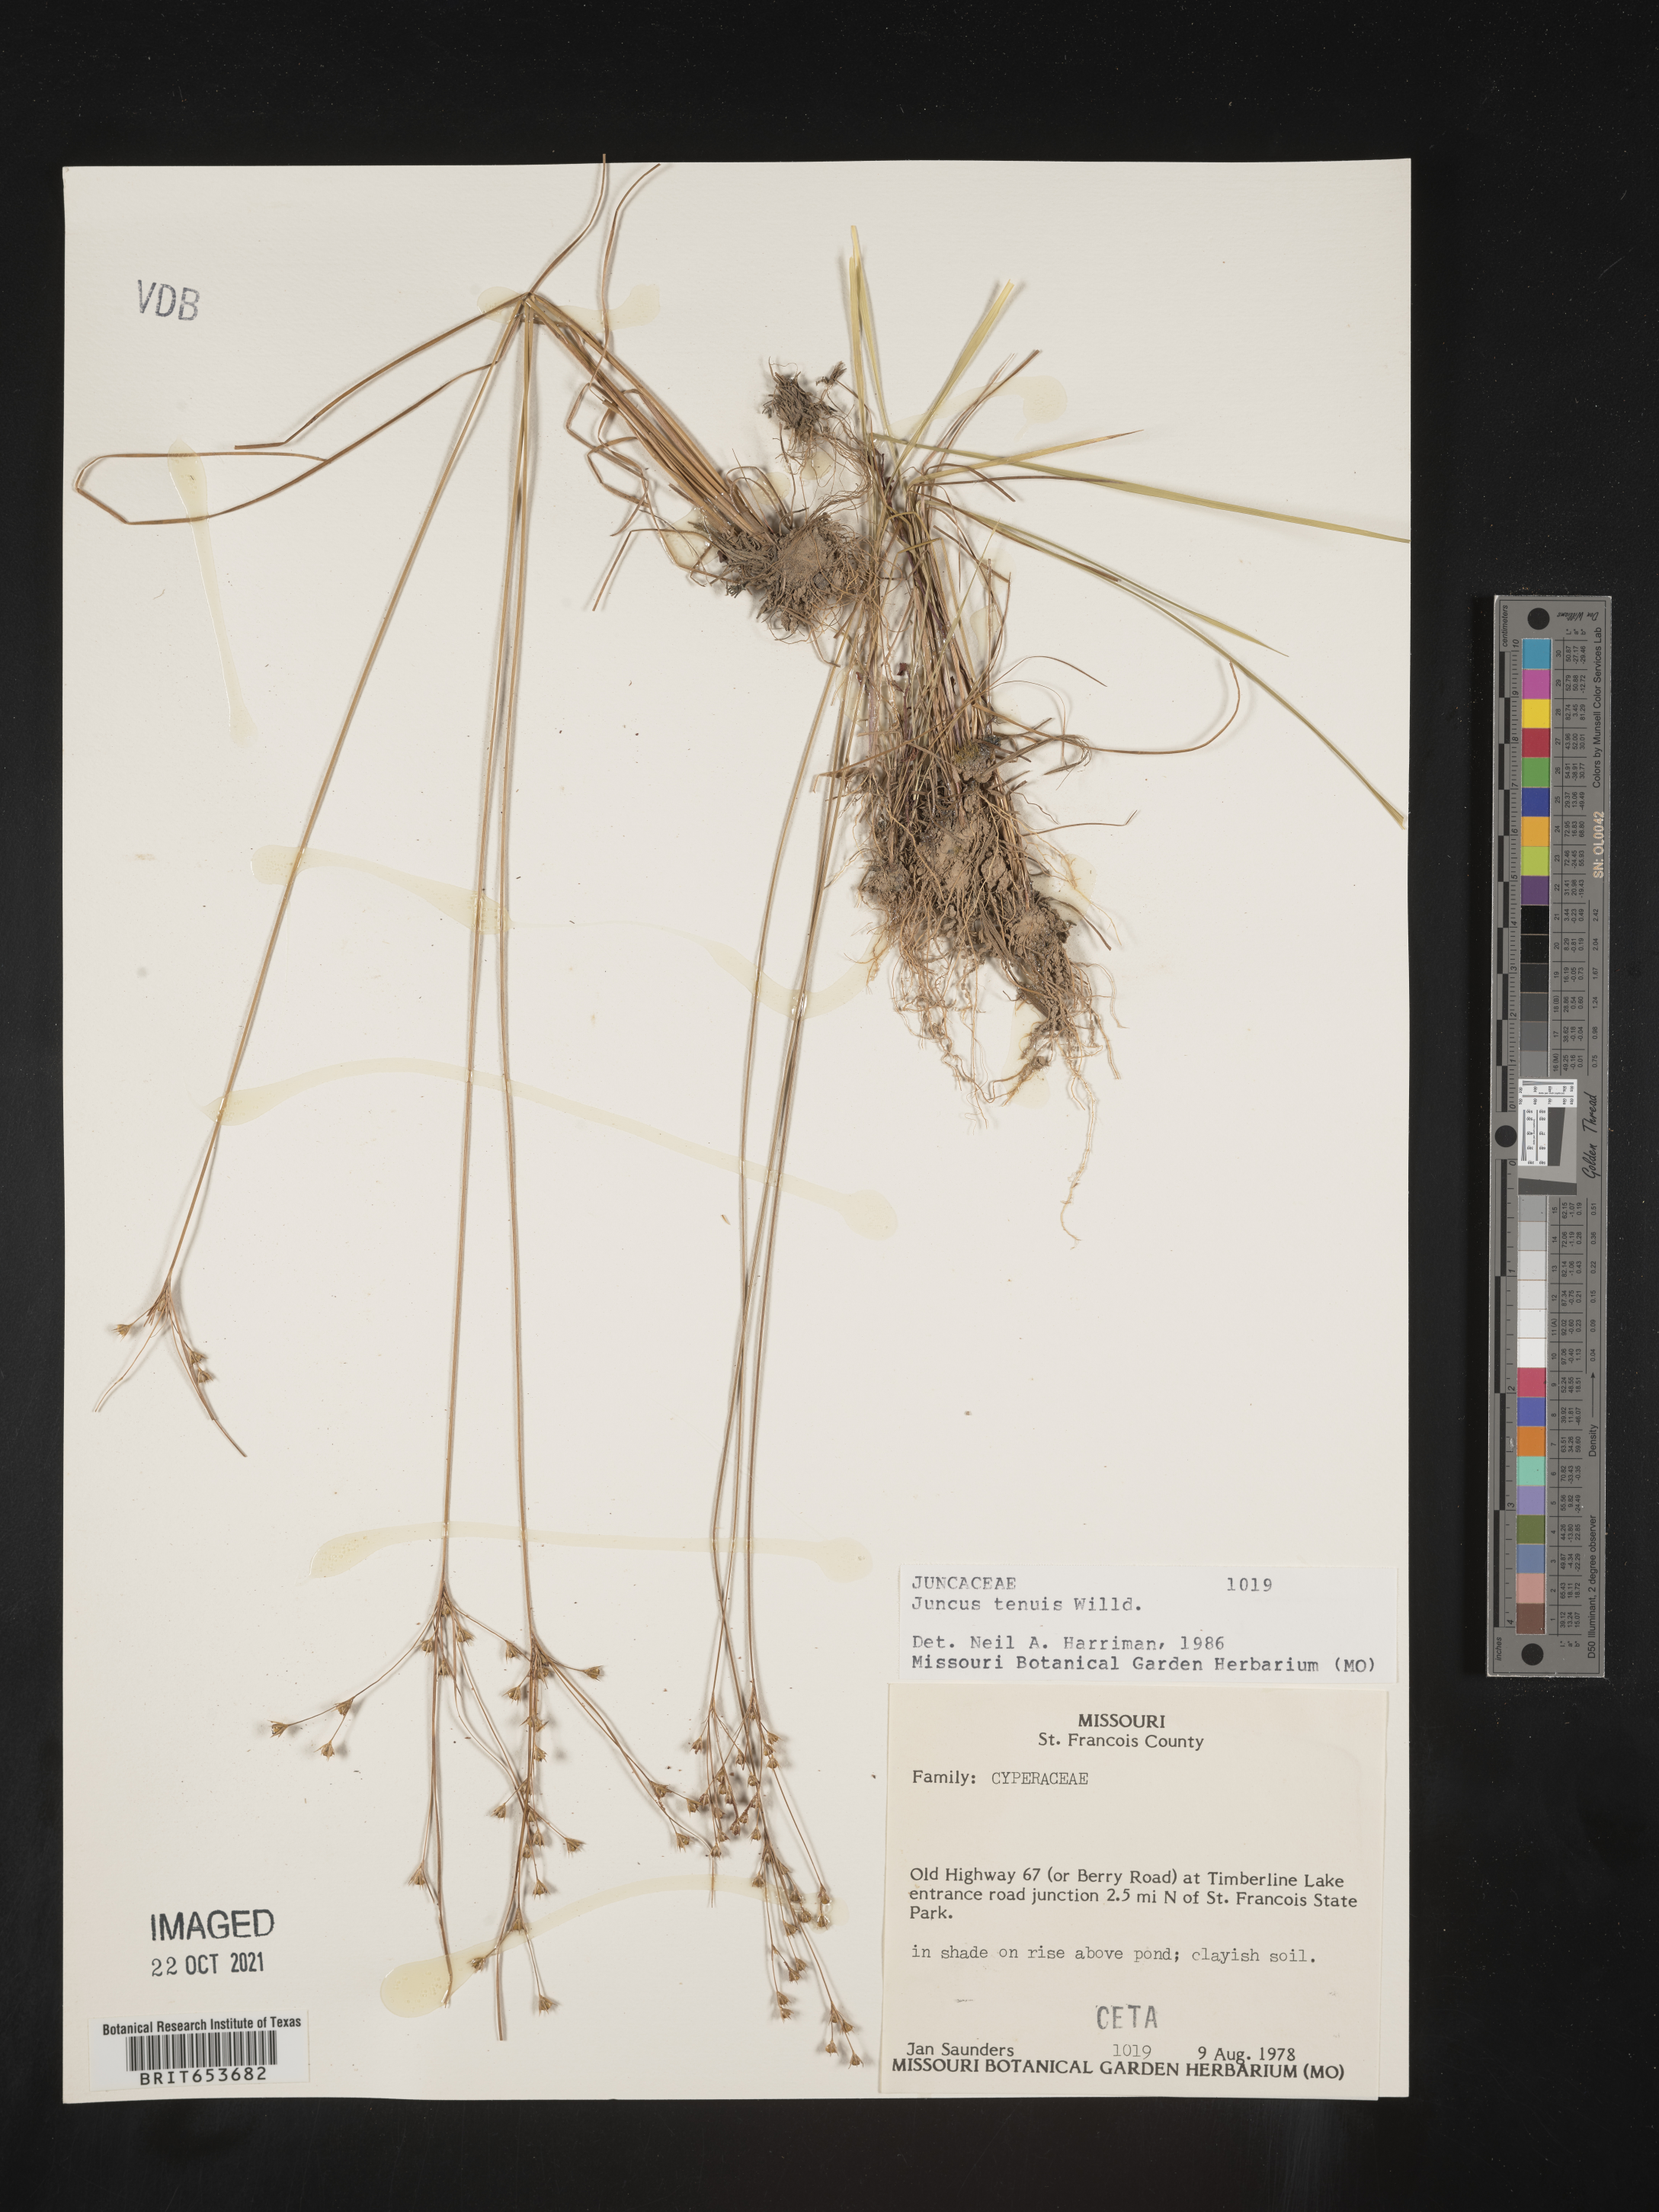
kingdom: Plantae
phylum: Tracheophyta
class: Liliopsida
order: Poales
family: Juncaceae
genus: Juncus
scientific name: Juncus tenuis
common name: Slender rush
